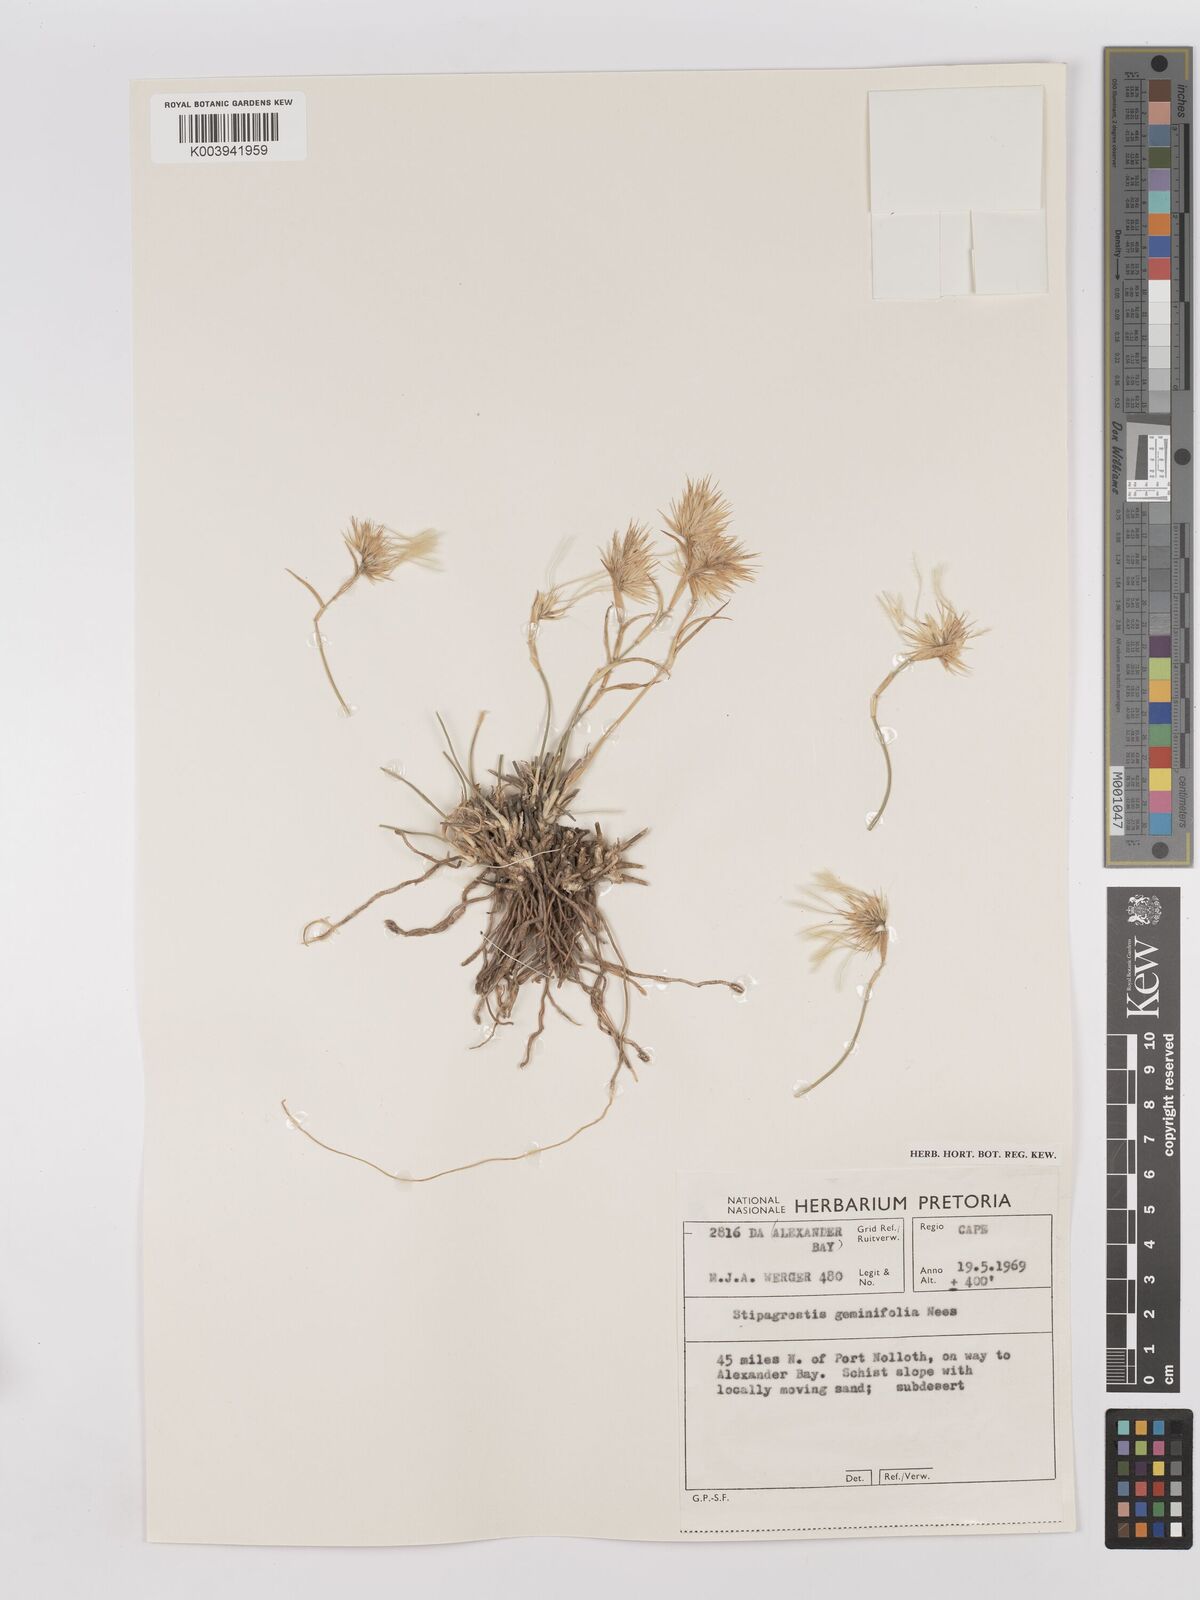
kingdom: Plantae
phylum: Tracheophyta
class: Liliopsida
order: Poales
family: Poaceae
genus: Stipagrostis
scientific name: Stipagrostis geminifolia
